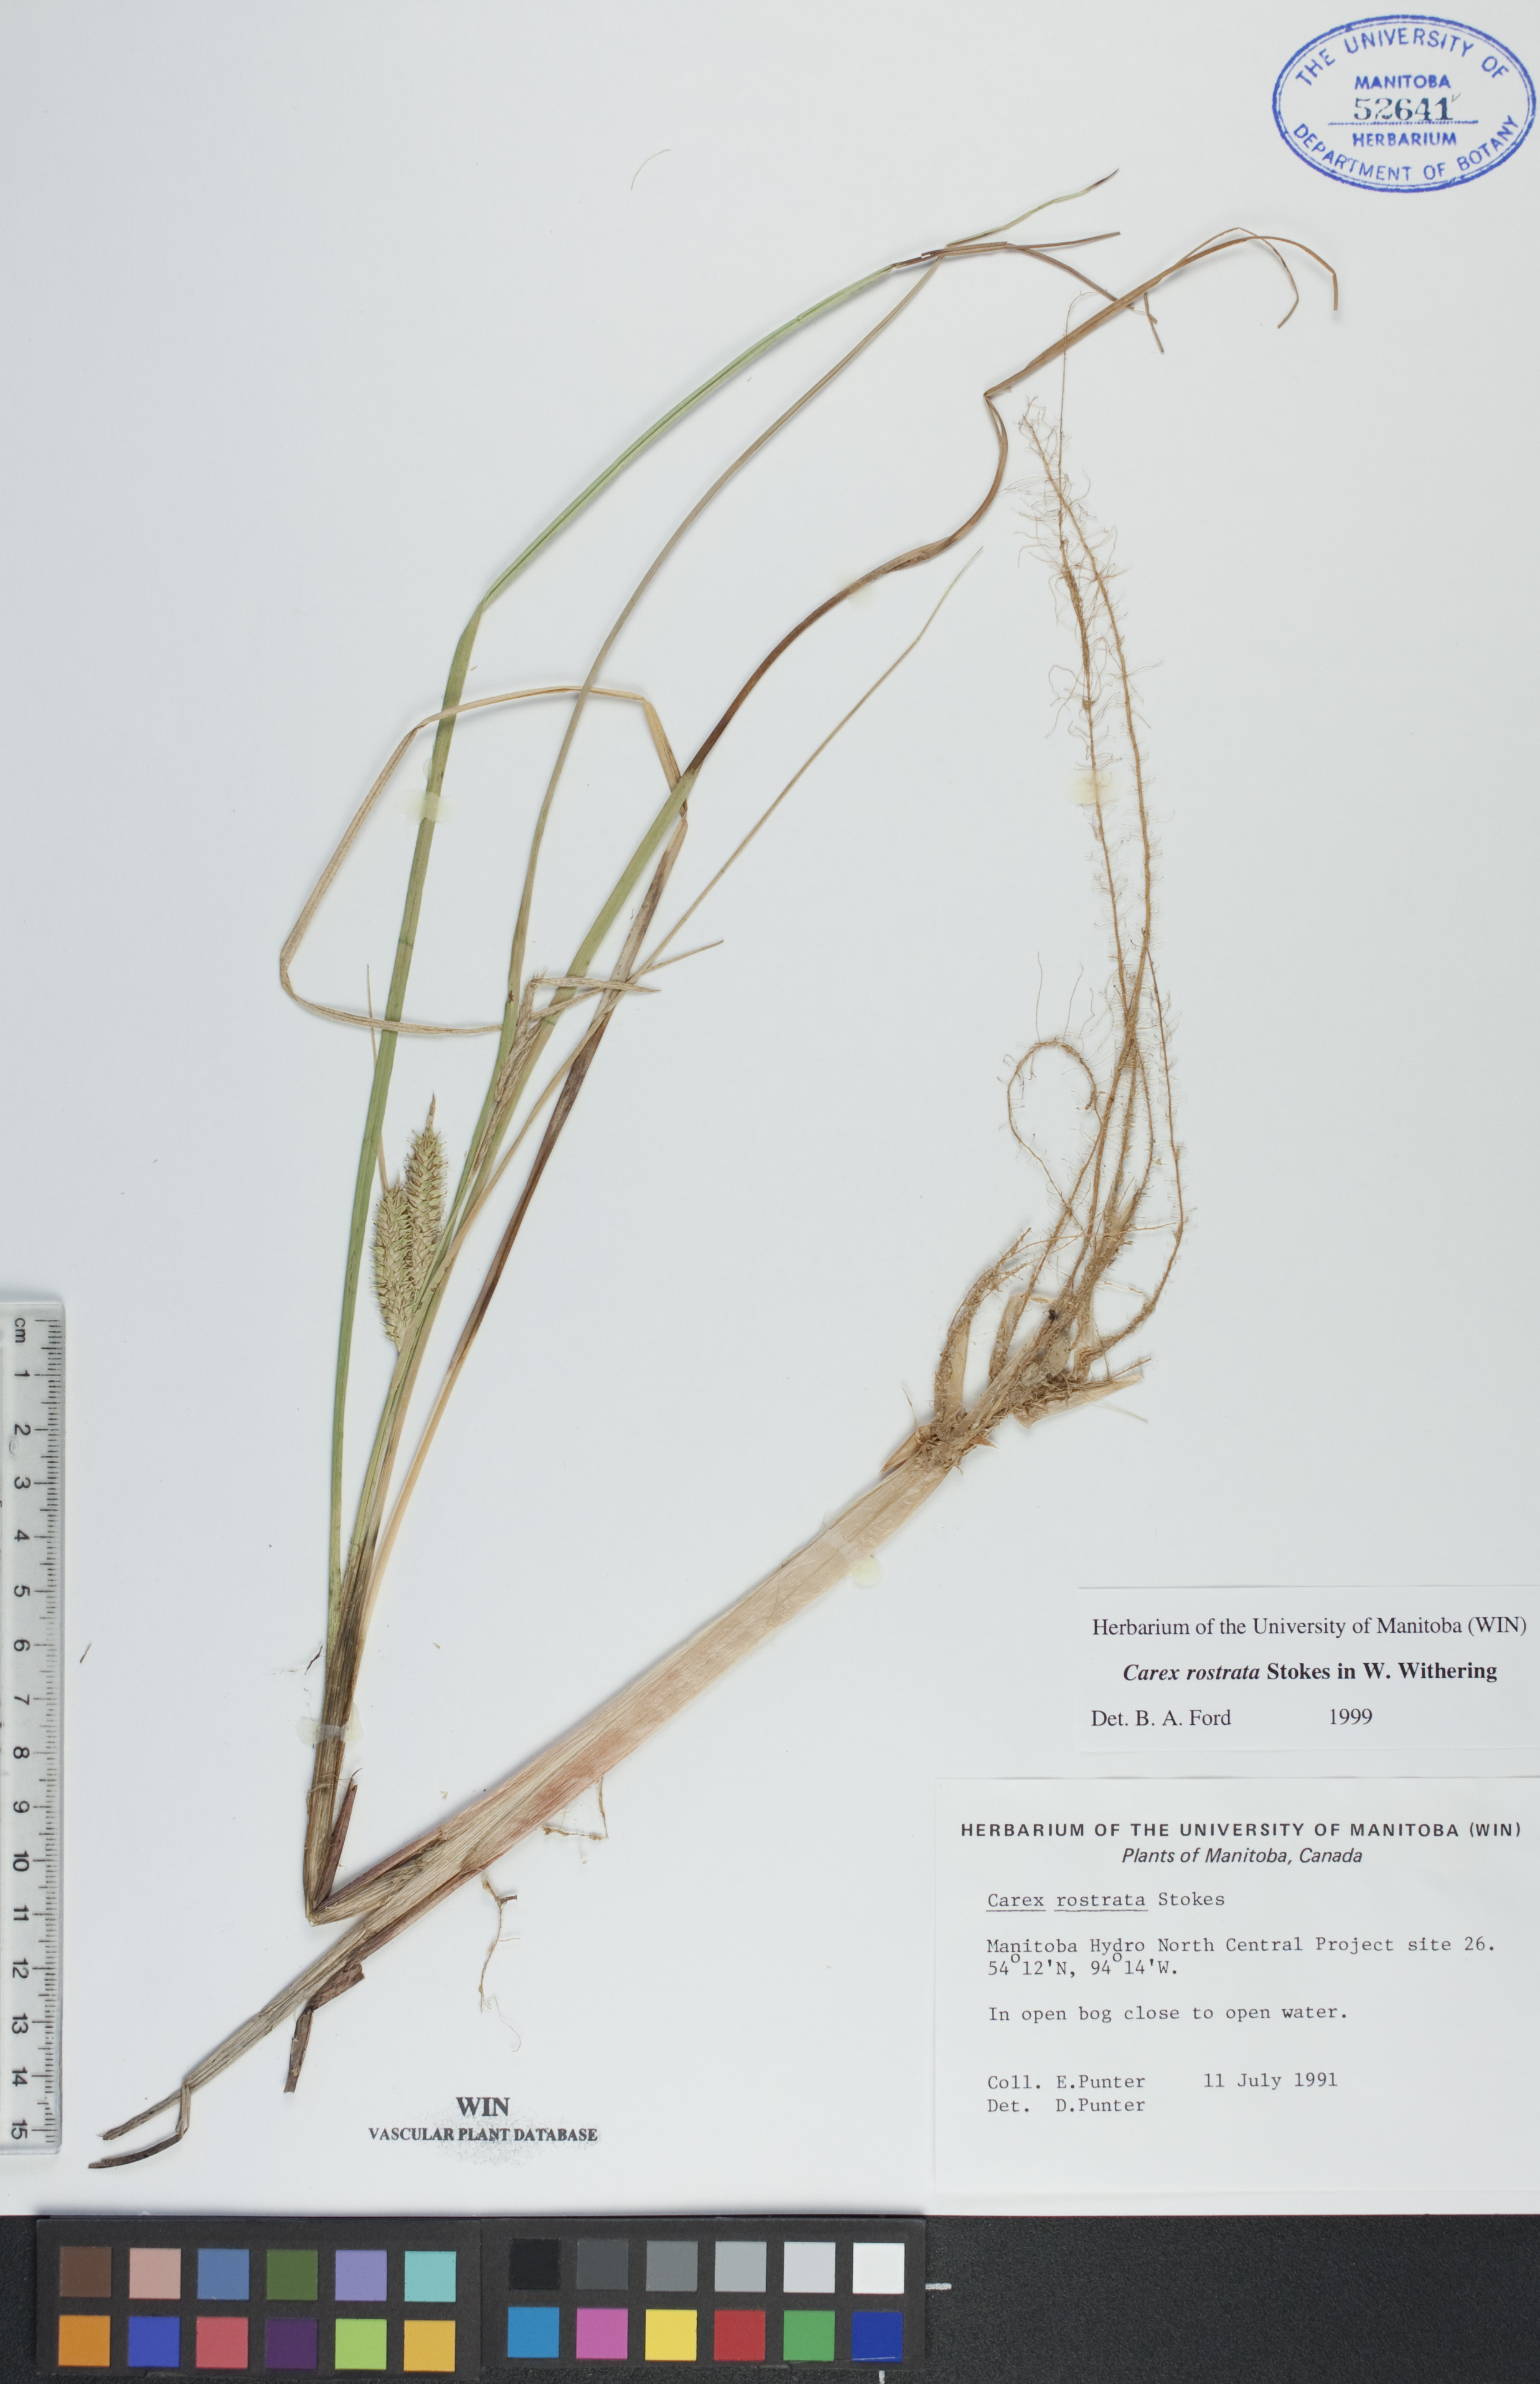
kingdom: Plantae
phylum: Tracheophyta
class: Liliopsida
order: Poales
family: Cyperaceae
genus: Carex
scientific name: Carex rostrata
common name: Bottle sedge
